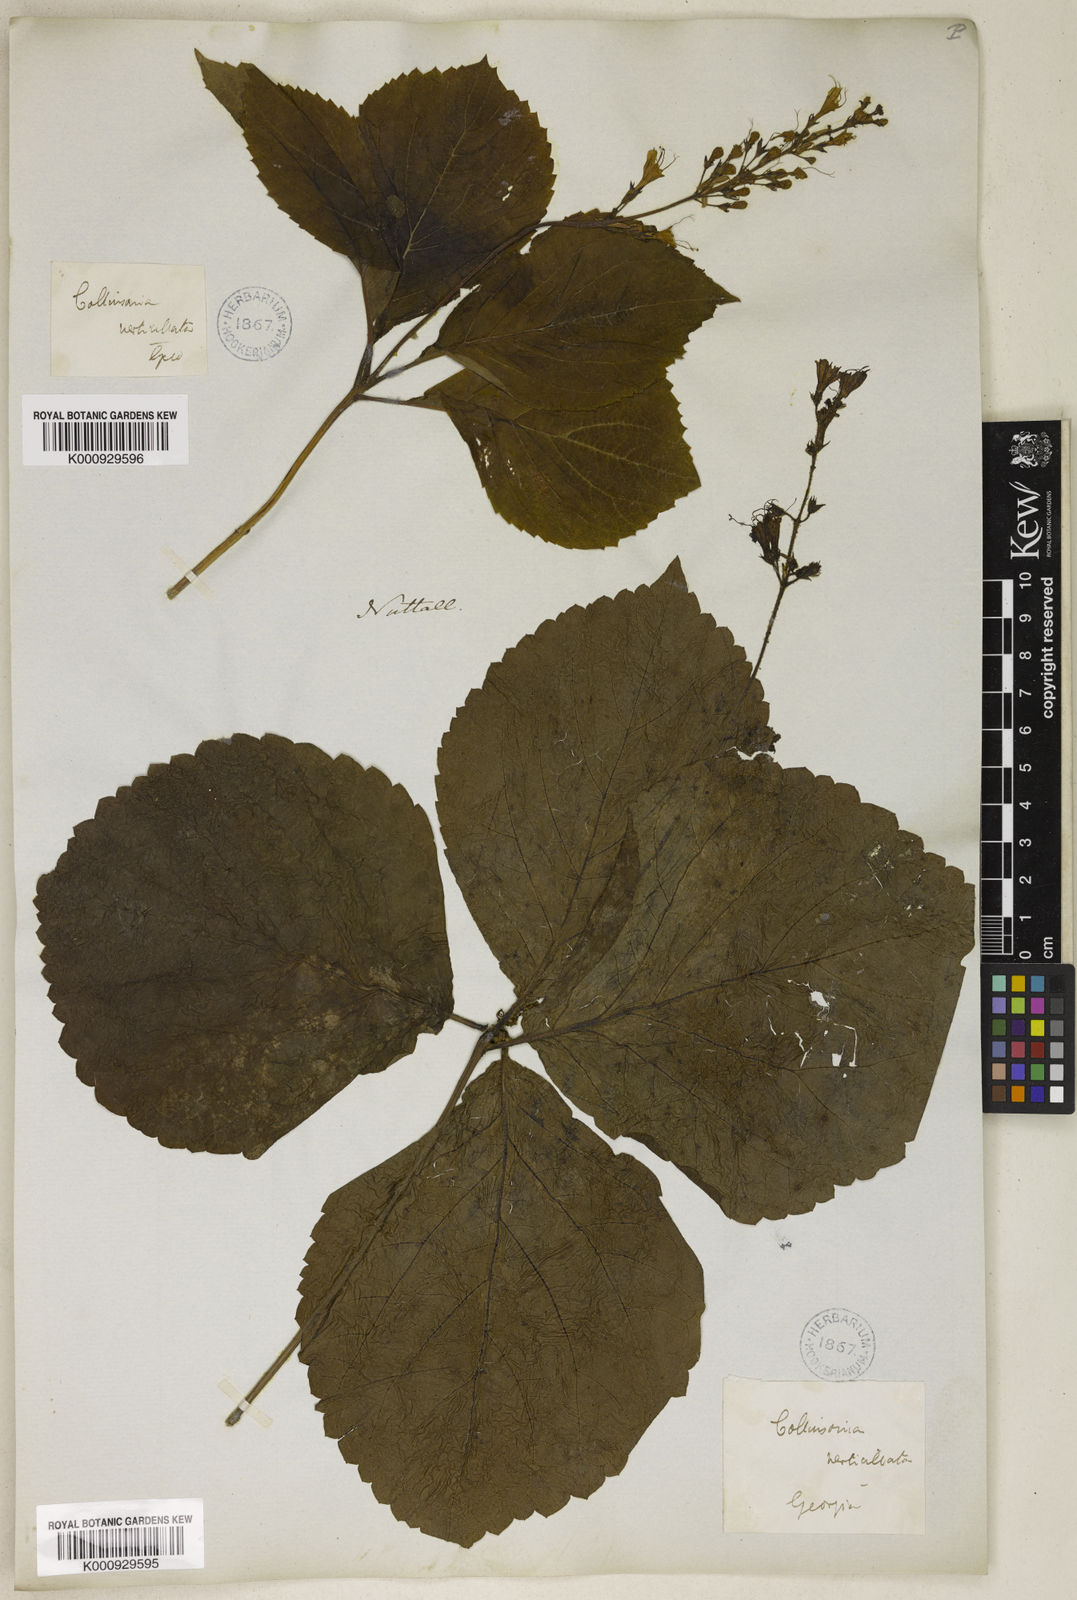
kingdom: Plantae
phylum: Tracheophyta
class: Magnoliopsida
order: Lamiales
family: Lamiaceae
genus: Collinsonia
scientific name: Collinsonia verticillata
